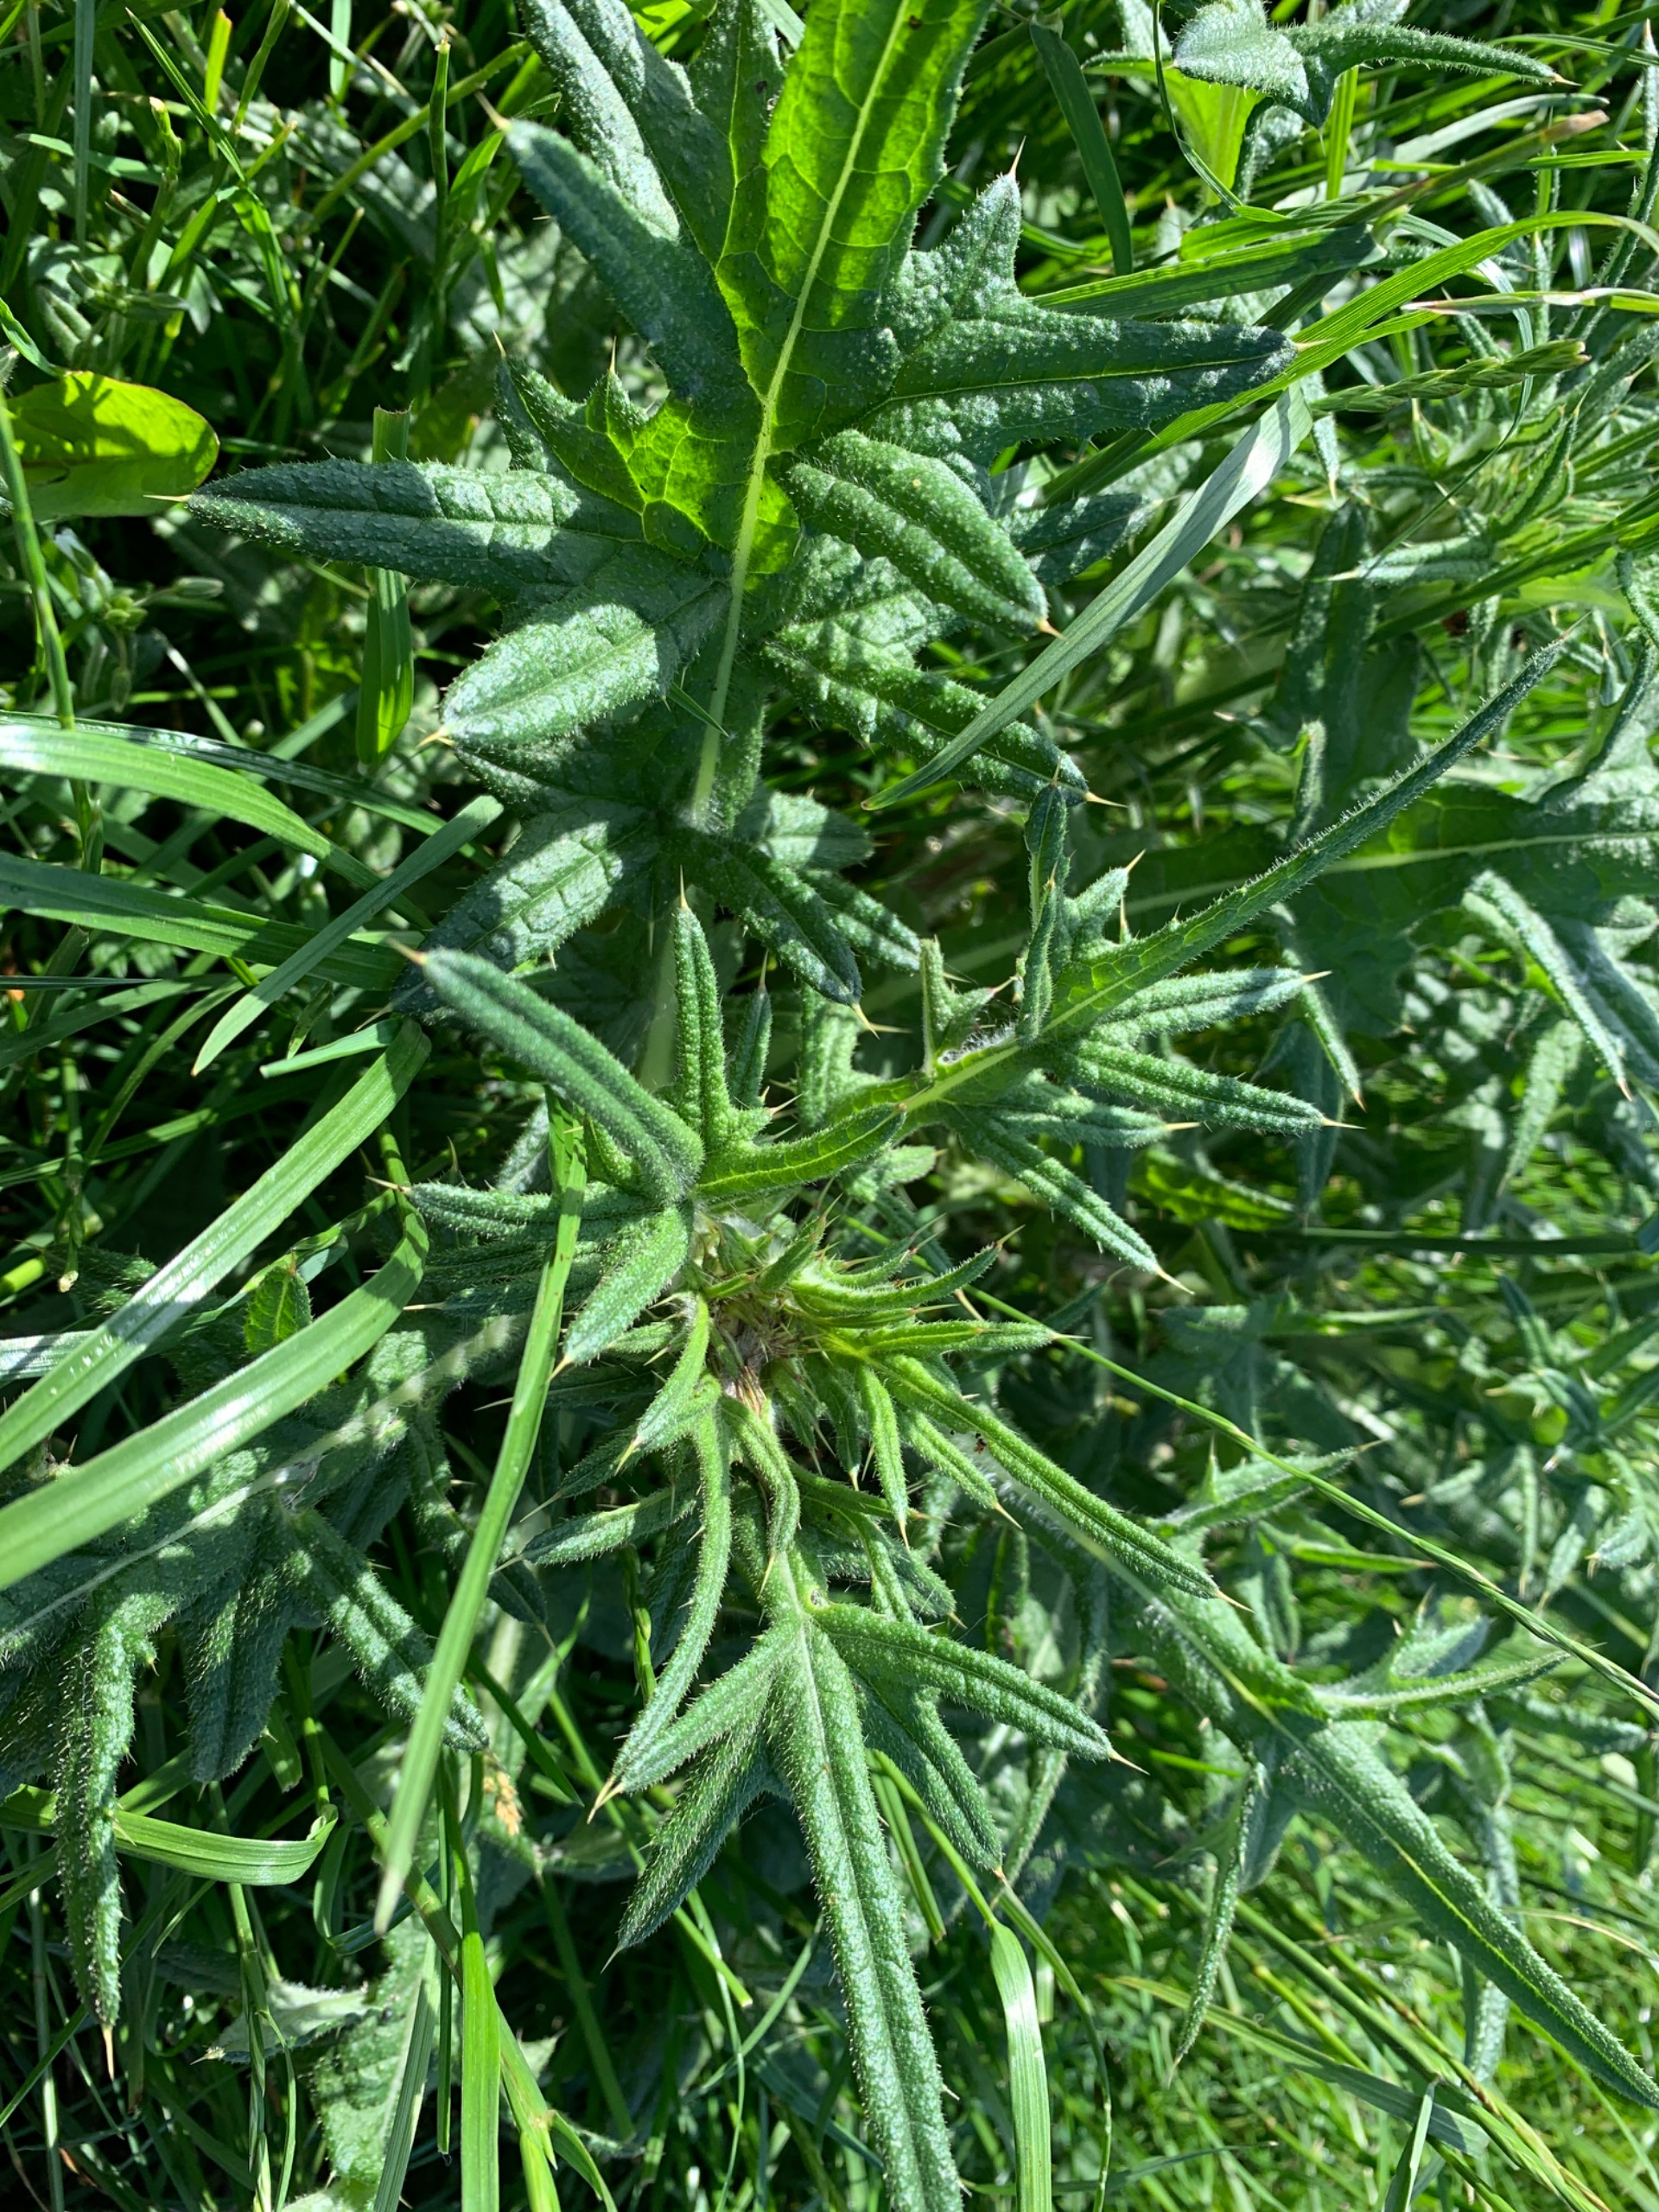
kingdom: Plantae
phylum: Tracheophyta
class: Magnoliopsida
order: Asterales
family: Asteraceae
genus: Cirsium
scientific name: Cirsium vulgare
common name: Horse-tidsel
